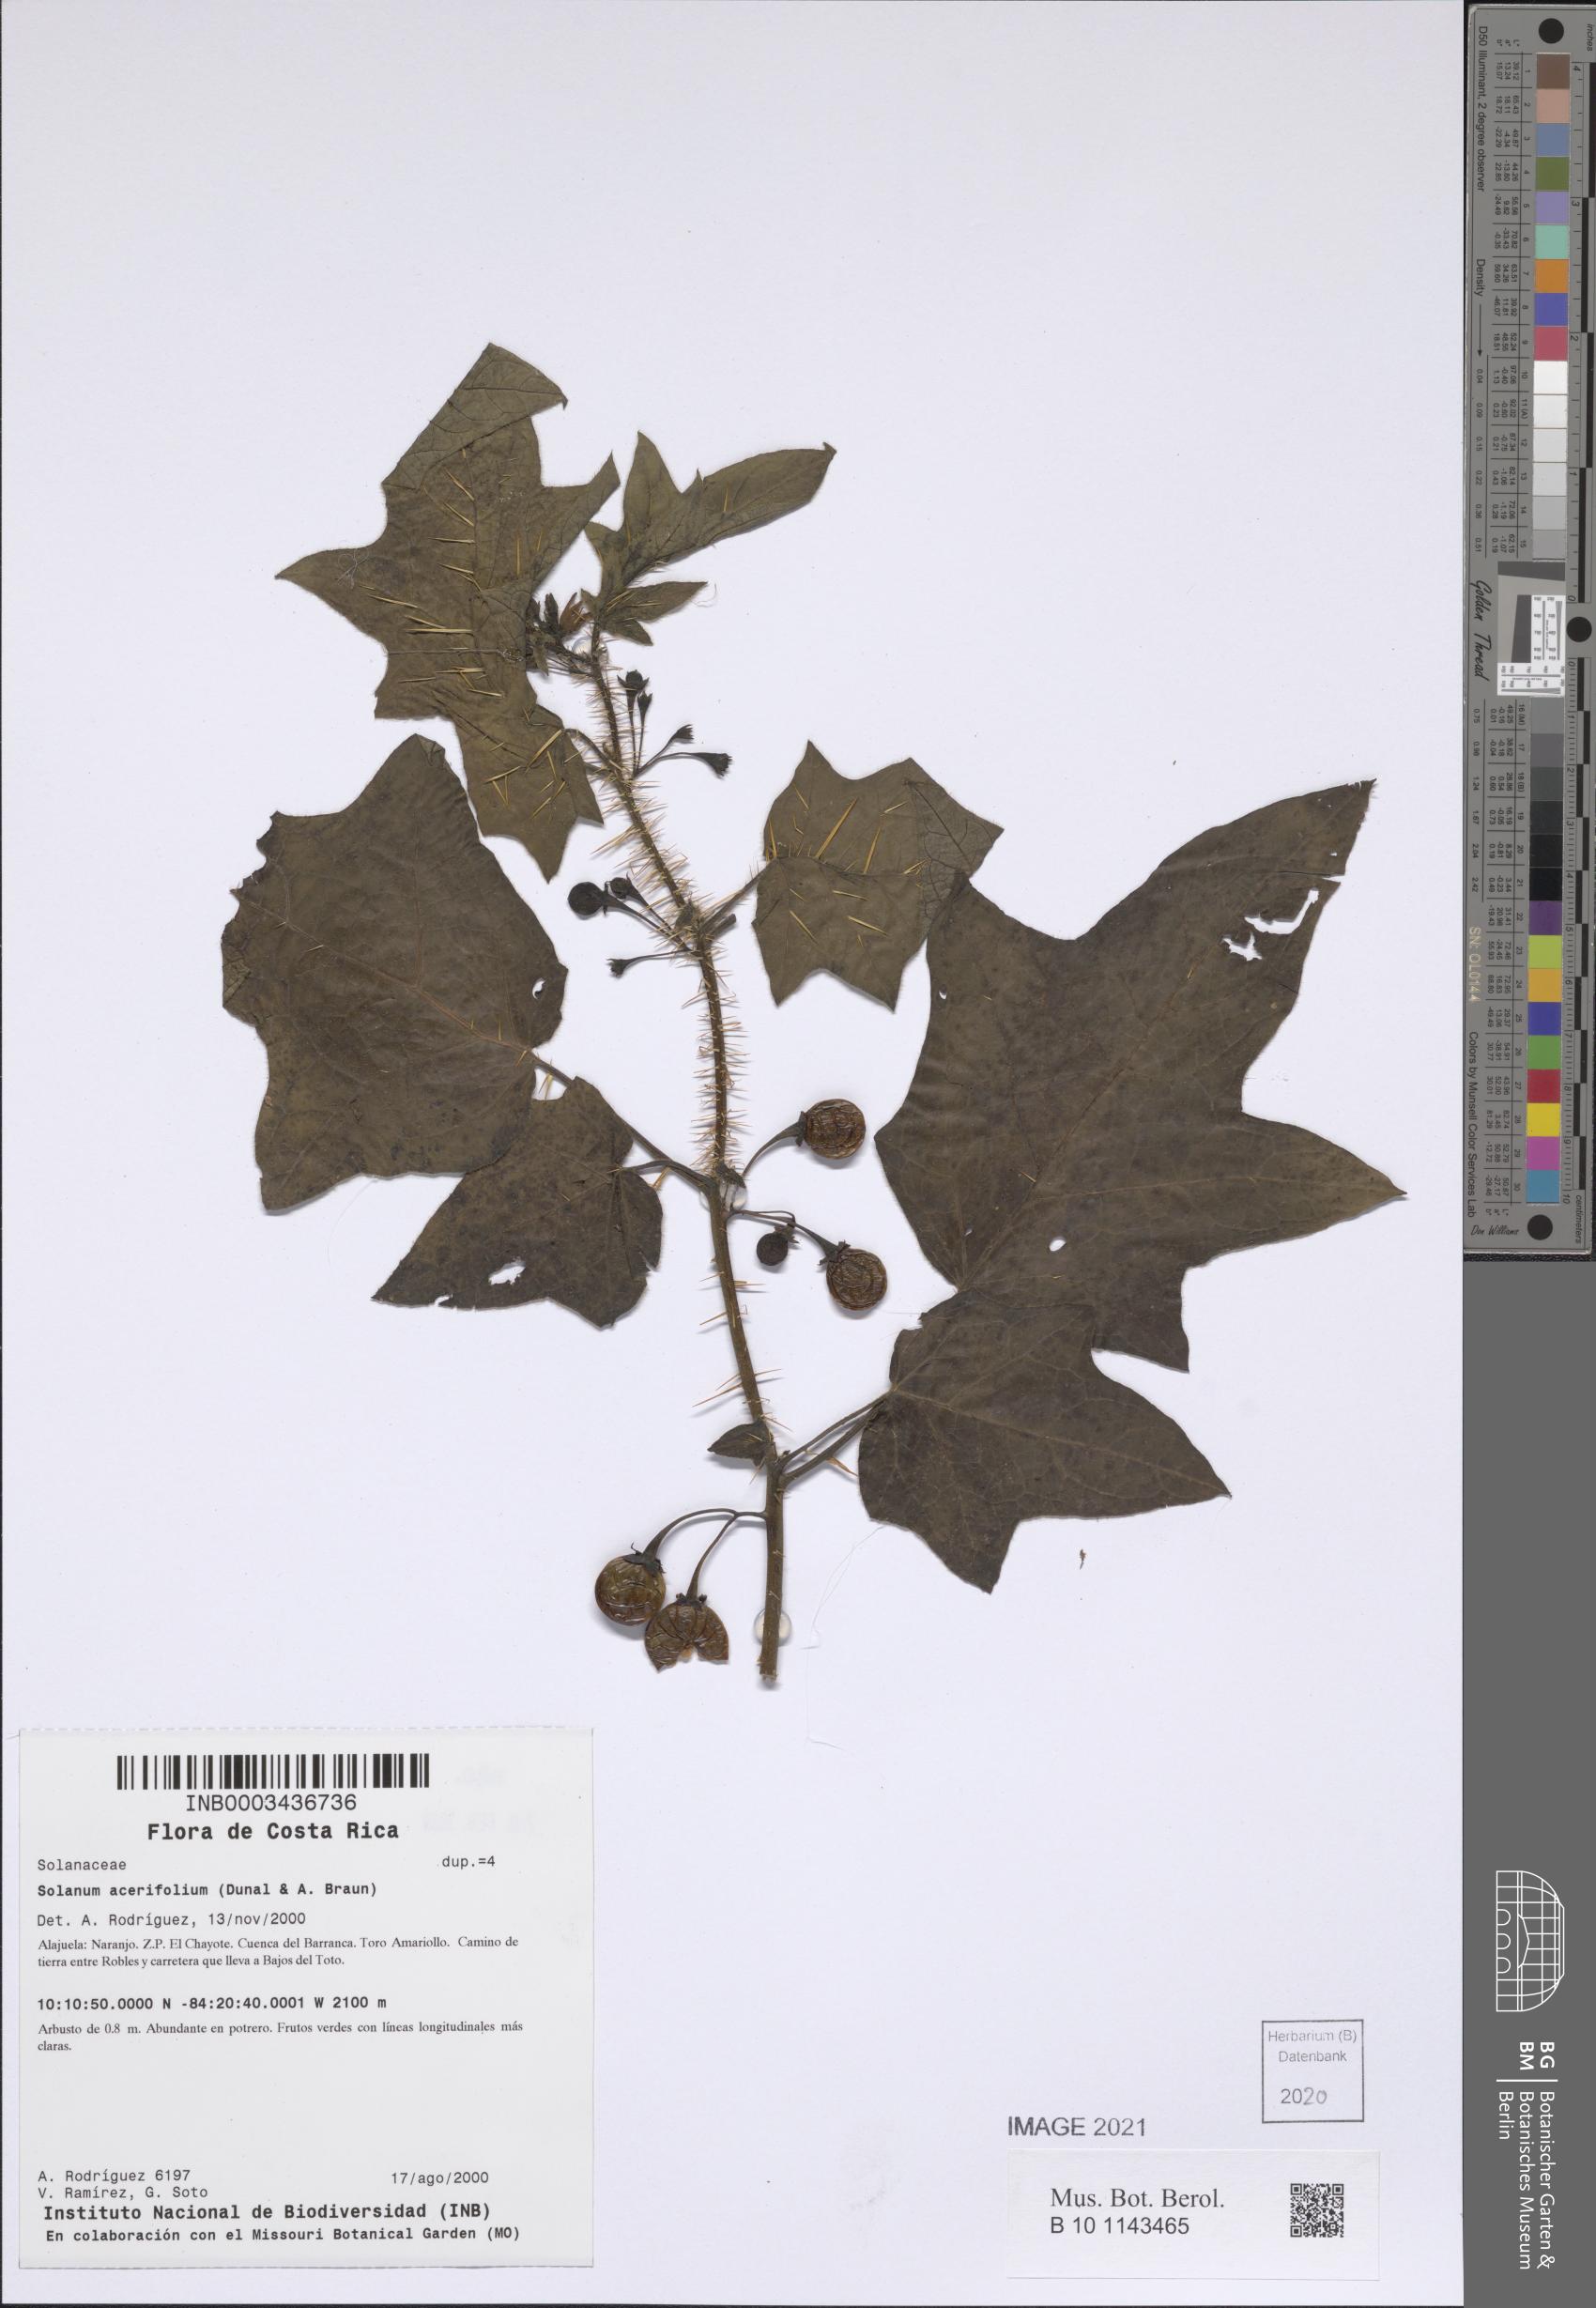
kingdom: Plantae
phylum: Tracheophyta
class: Magnoliopsida
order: Solanales
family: Solanaceae
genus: Solanum
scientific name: Solanum acerifolium
